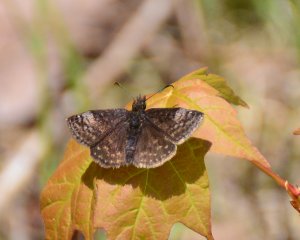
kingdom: Animalia
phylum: Arthropoda
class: Insecta
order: Lepidoptera
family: Hesperiidae
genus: Erynnis
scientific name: Erynnis icelus
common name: Dreamy Duskywing
